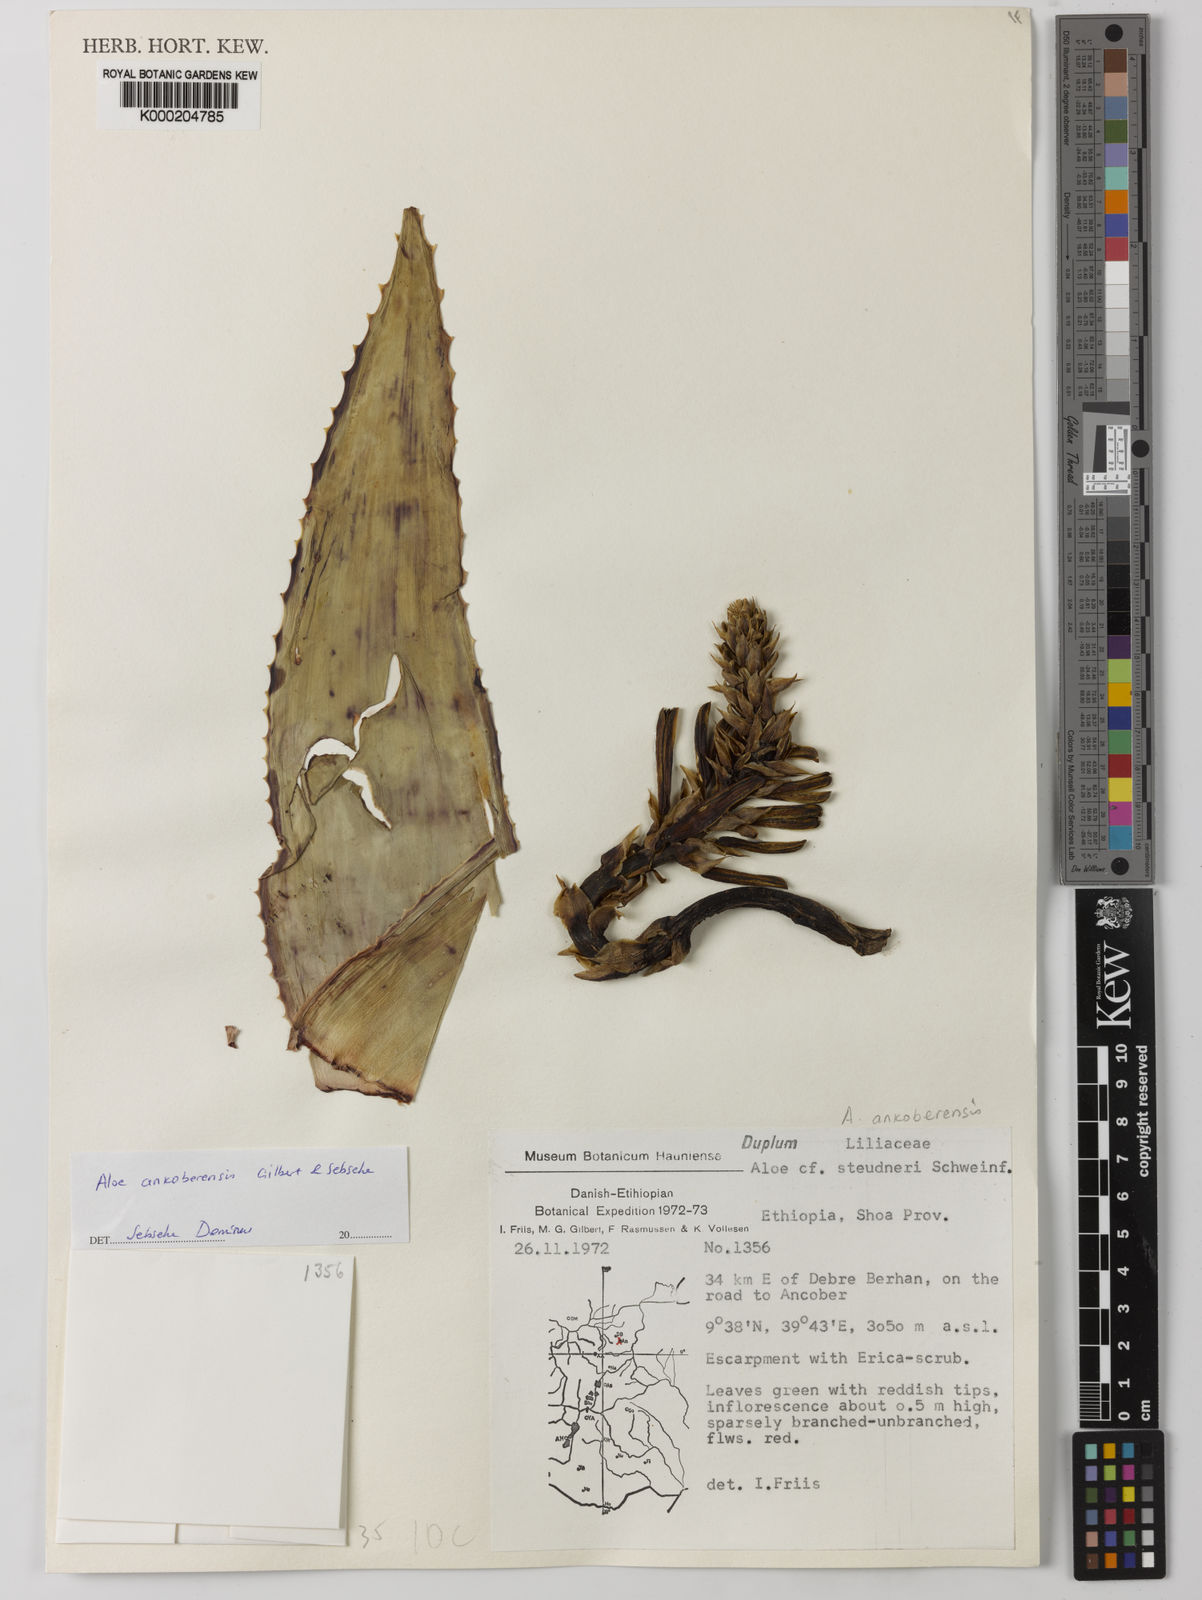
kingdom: Plantae
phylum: Tracheophyta
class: Liliopsida
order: Asparagales
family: Asphodelaceae
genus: Aloe
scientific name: Aloe ankoberensis
